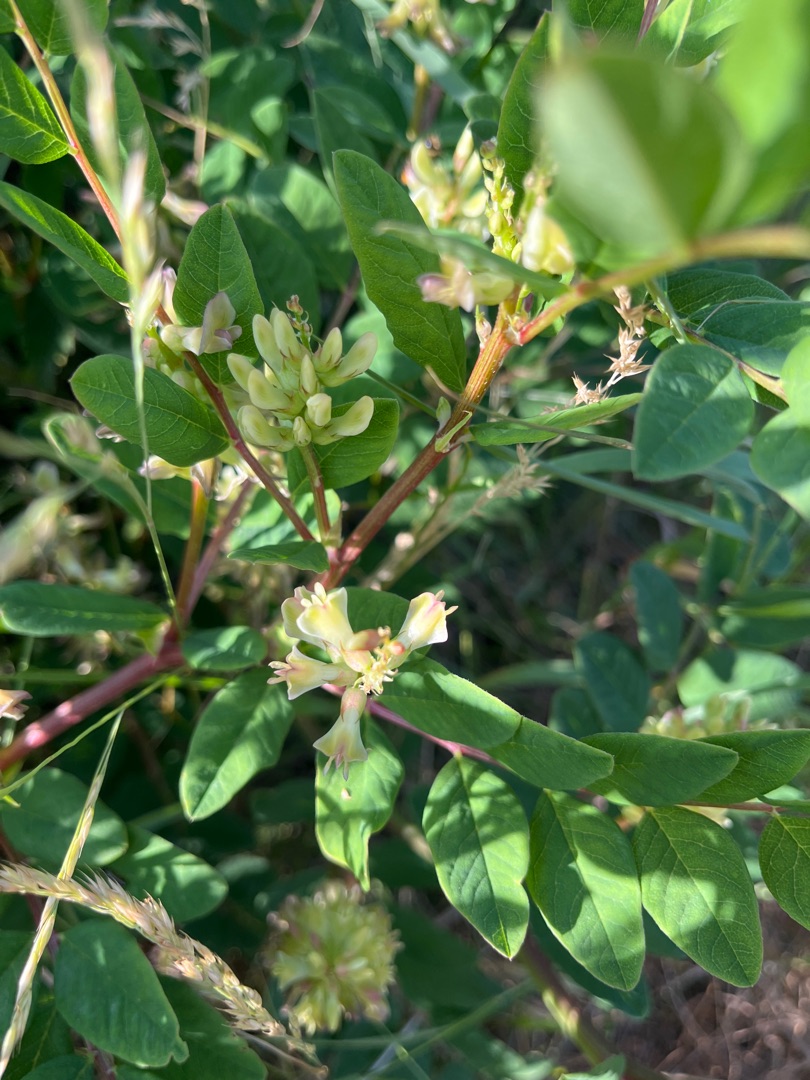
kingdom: Plantae
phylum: Tracheophyta
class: Magnoliopsida
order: Fabales
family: Fabaceae
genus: Astragalus
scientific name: Astragalus glycyphyllos
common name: Sød astragel
